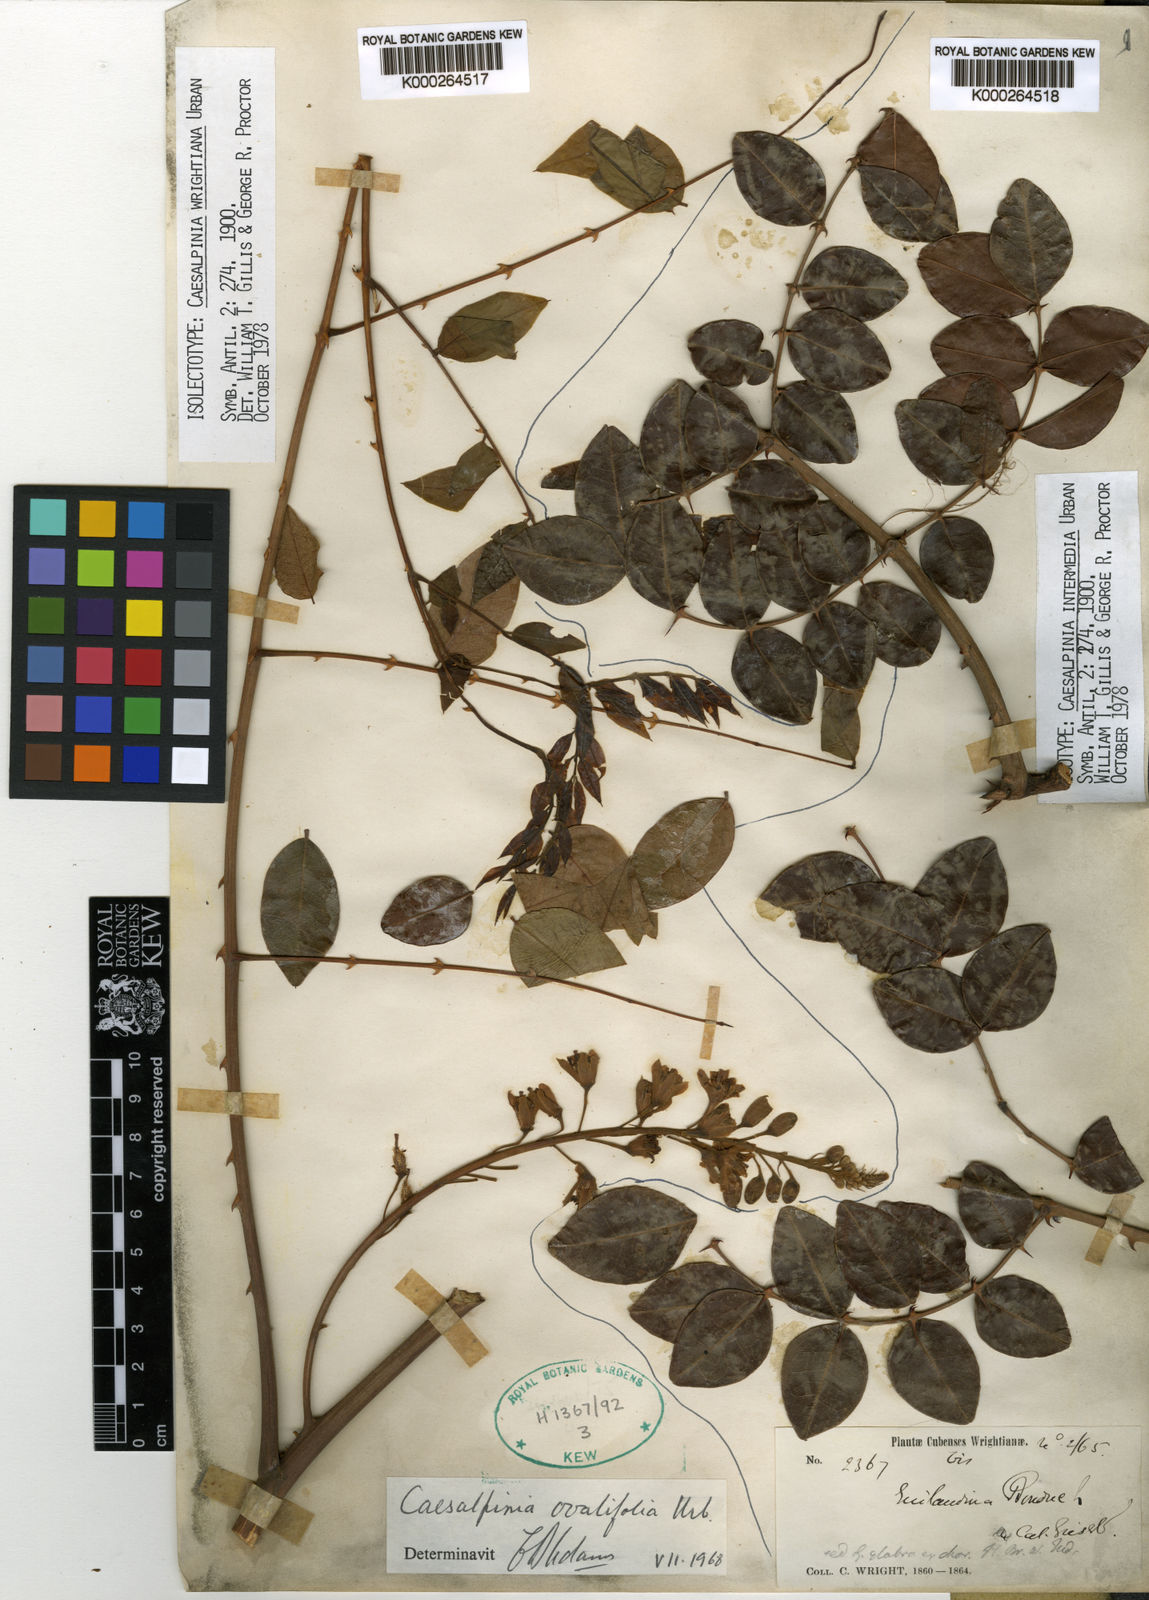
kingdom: Plantae
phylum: Tracheophyta
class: Magnoliopsida
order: Fabales
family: Fabaceae
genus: Guilandina
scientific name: Guilandina intermedia
